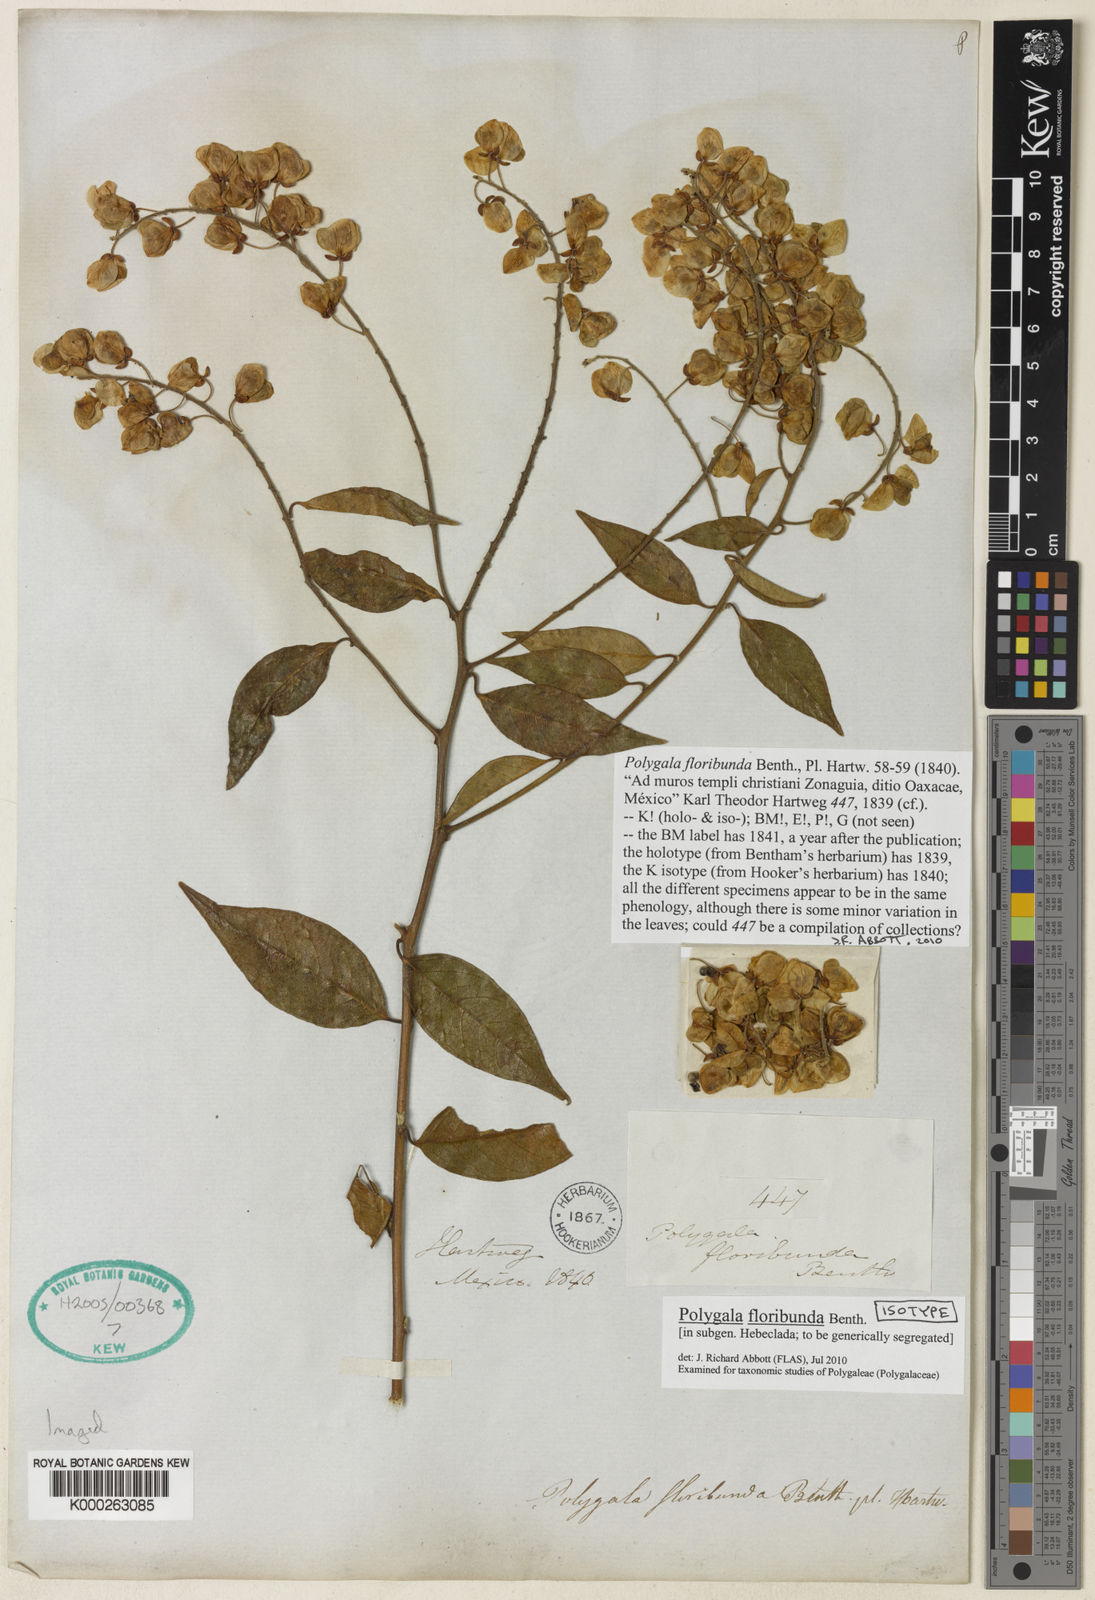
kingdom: Plantae
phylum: Tracheophyta
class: Magnoliopsida
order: Fabales
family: Polygalaceae
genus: Asemeia
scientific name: Asemeia floribunda
